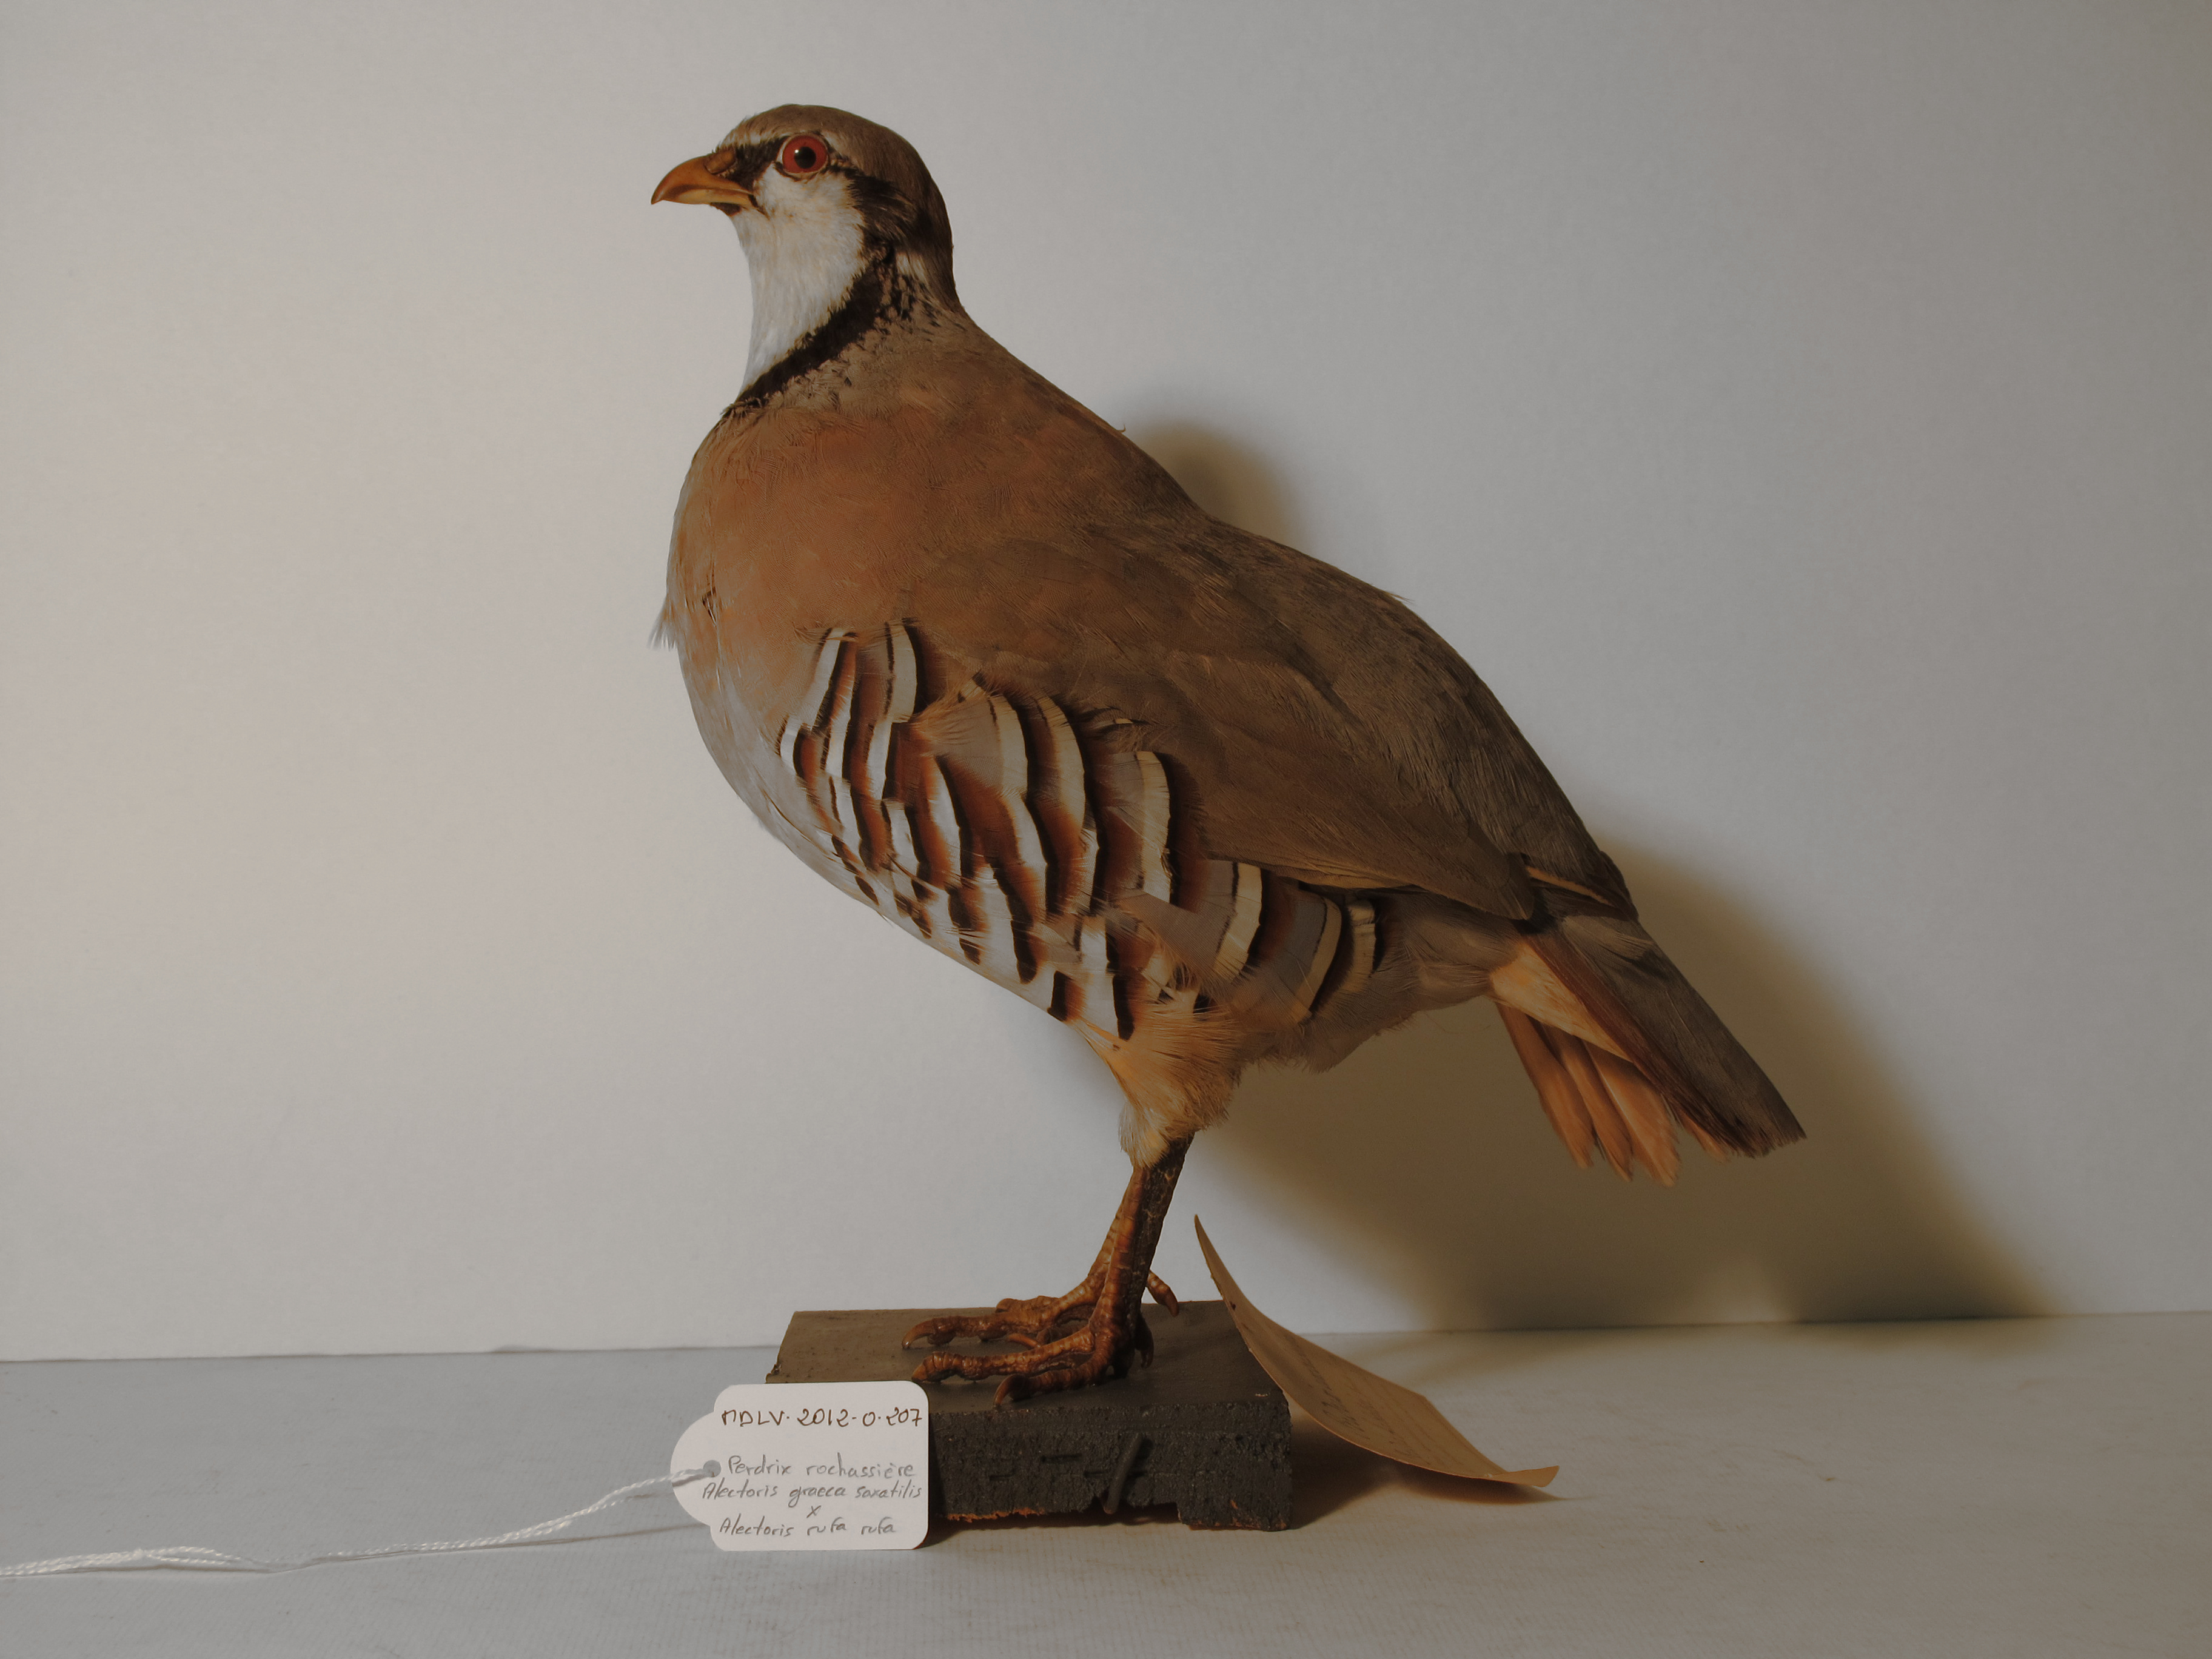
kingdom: Animalia
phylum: Chordata
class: Aves
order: Galliformes
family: Phasianidae
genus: Alectoris
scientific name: Alectoris
